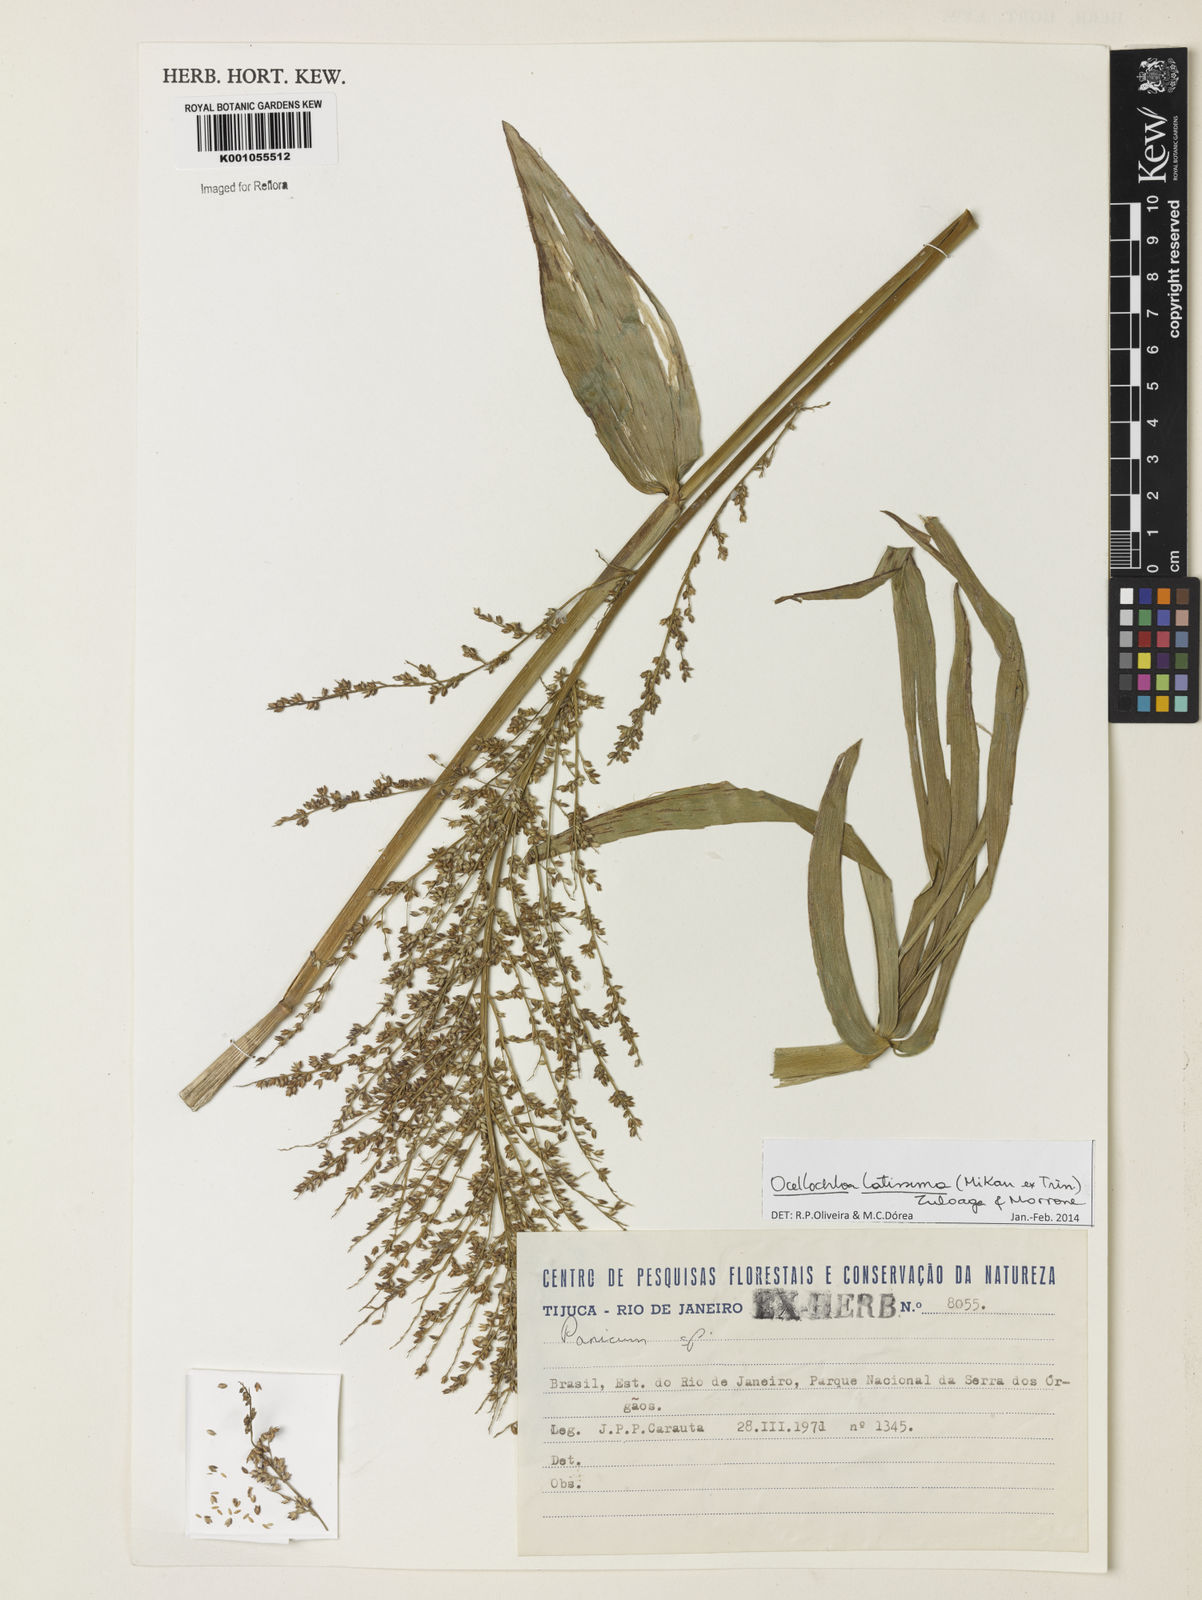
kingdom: Plantae
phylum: Tracheophyta
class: Liliopsida
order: Poales
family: Poaceae
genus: Ocellochloa
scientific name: Ocellochloa latissima
